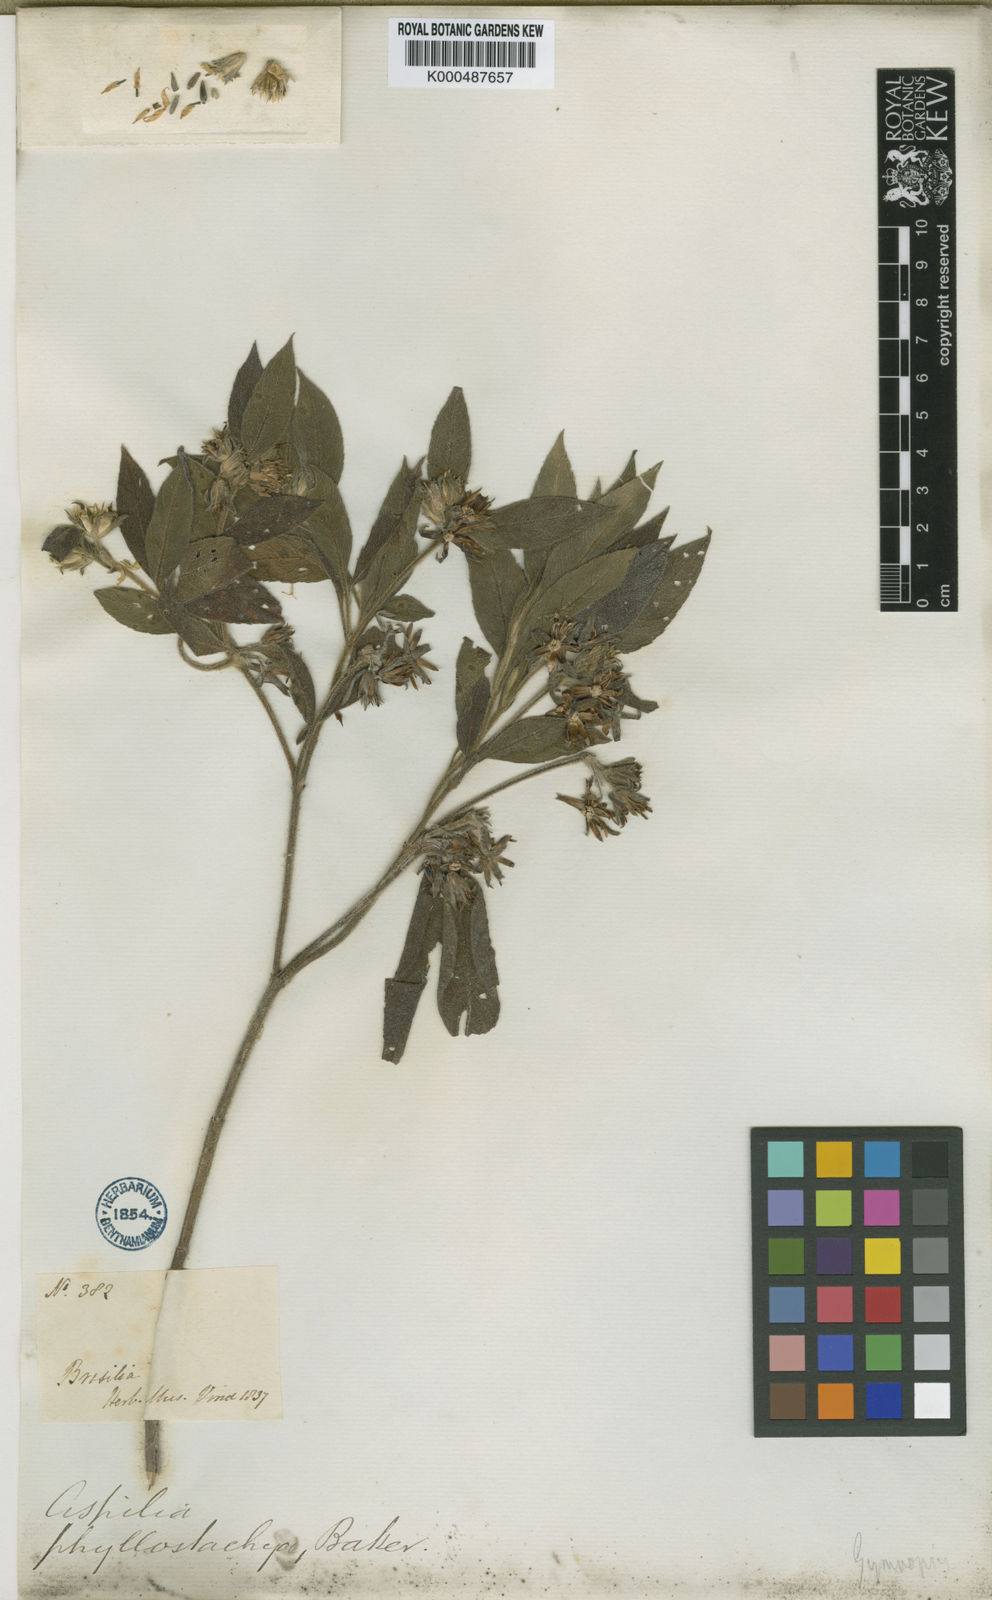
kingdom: Plantae
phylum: Tracheophyta
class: Magnoliopsida
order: Asterales
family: Asteraceae
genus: Wedelia
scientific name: Wedelia phyllostachya
